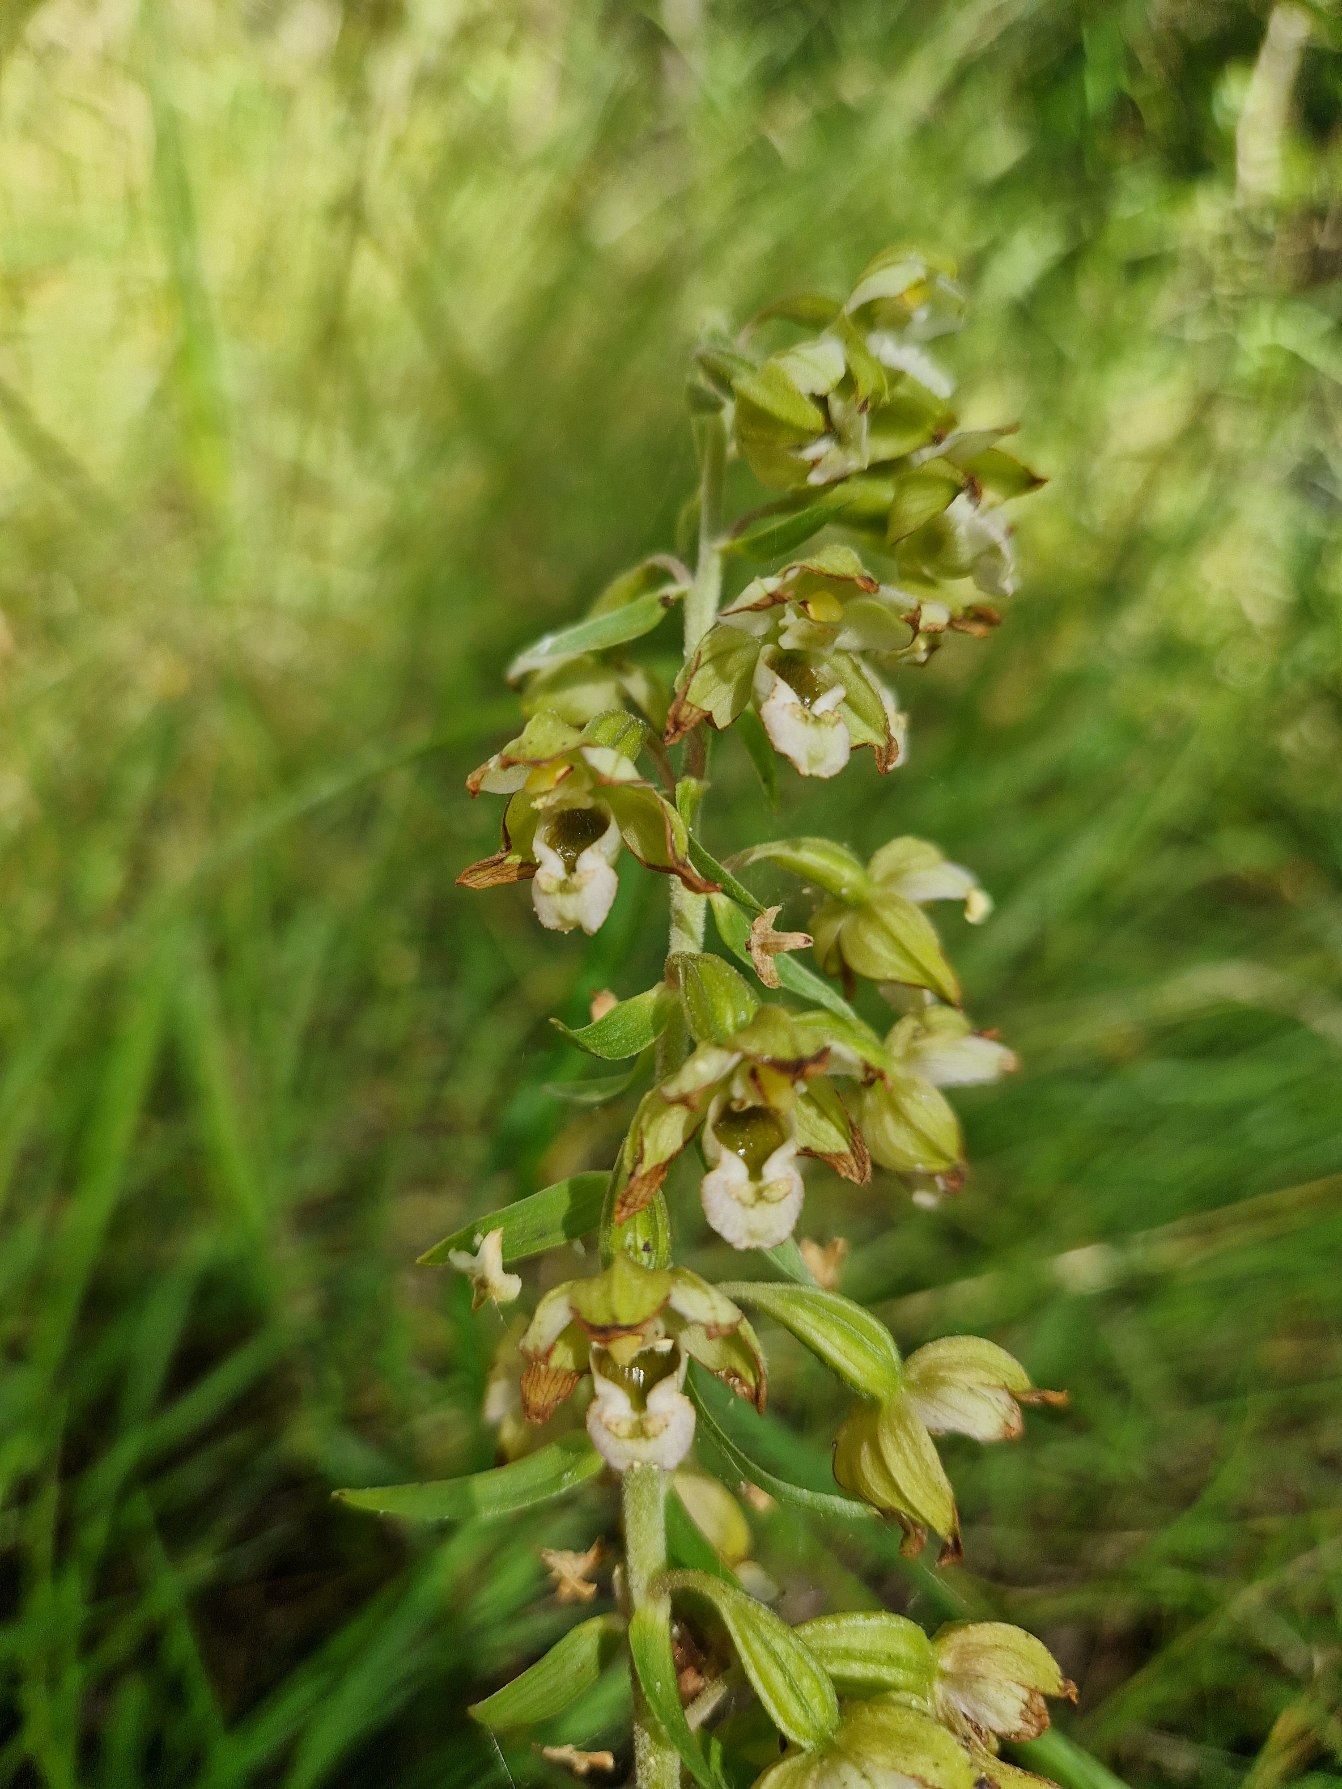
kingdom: Plantae
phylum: Tracheophyta
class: Liliopsida
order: Asparagales
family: Orchidaceae
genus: Epipactis
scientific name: Epipactis helleborine
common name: Skov-hullæbe
